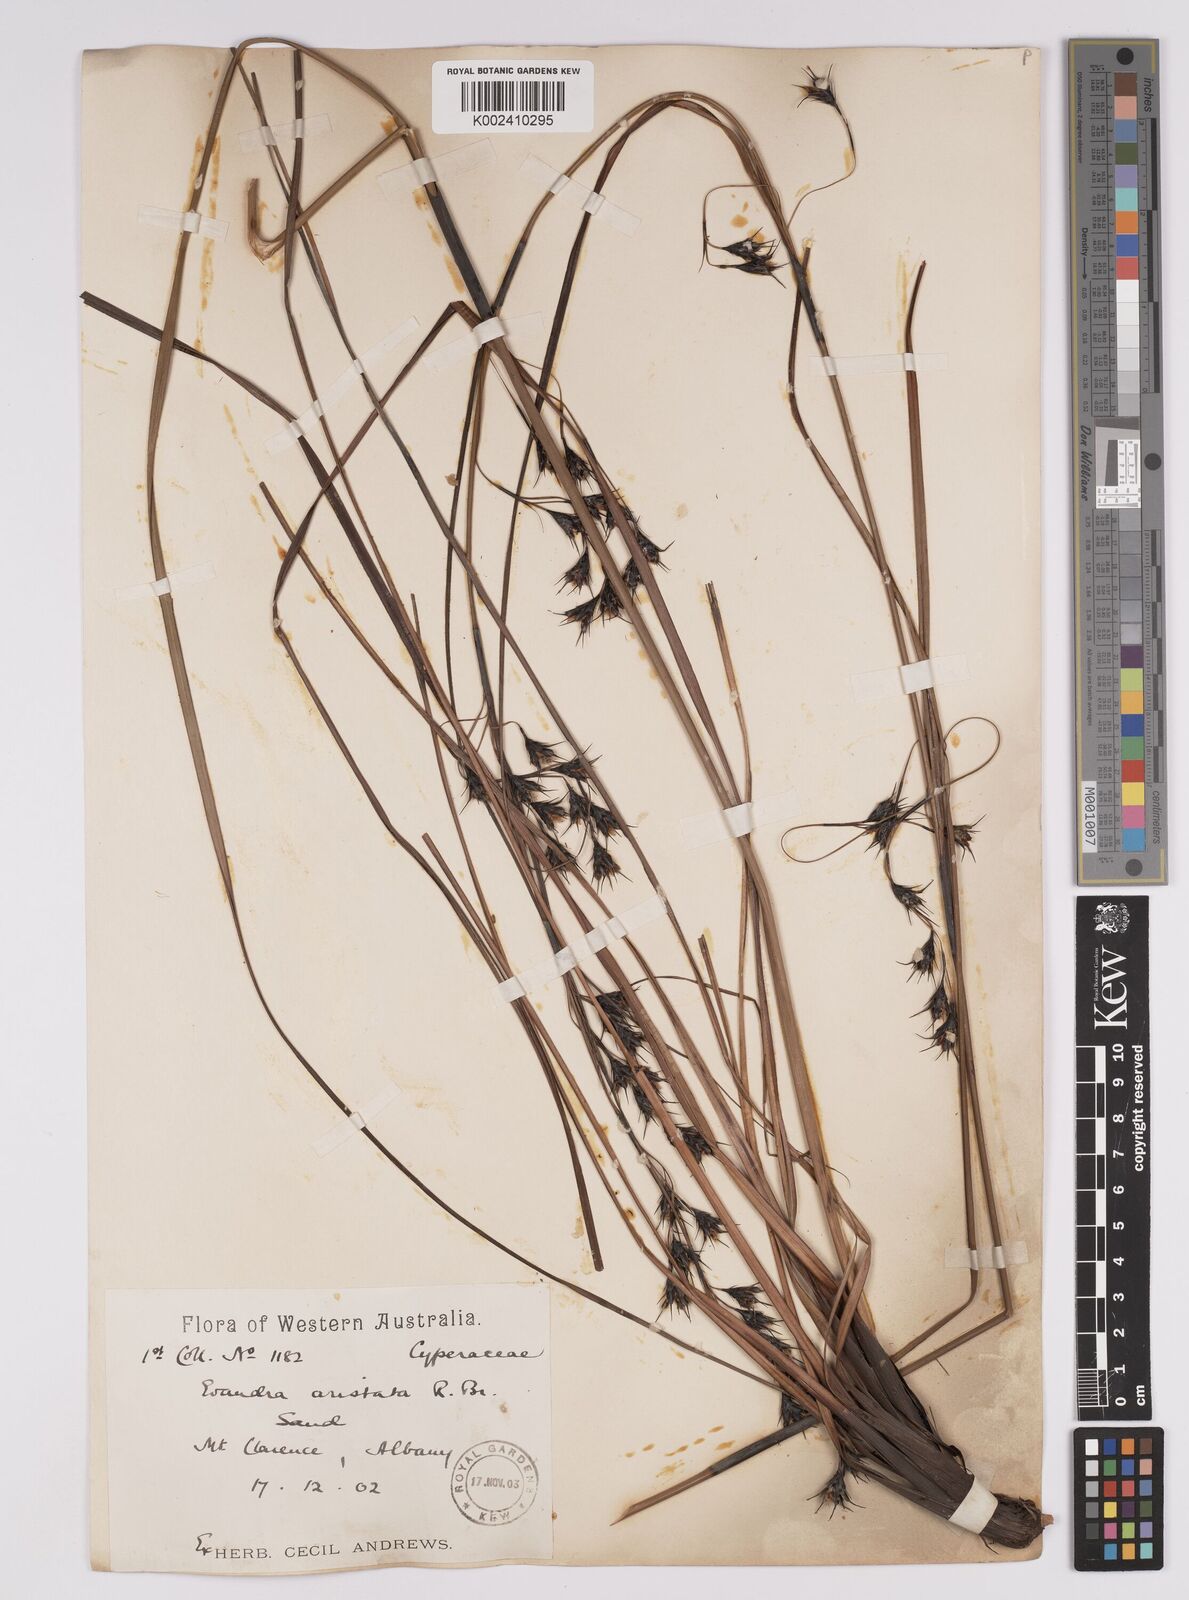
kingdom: Plantae
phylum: Tracheophyta
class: Liliopsida
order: Poales
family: Cyperaceae
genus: Evandra
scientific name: Evandra aristata
